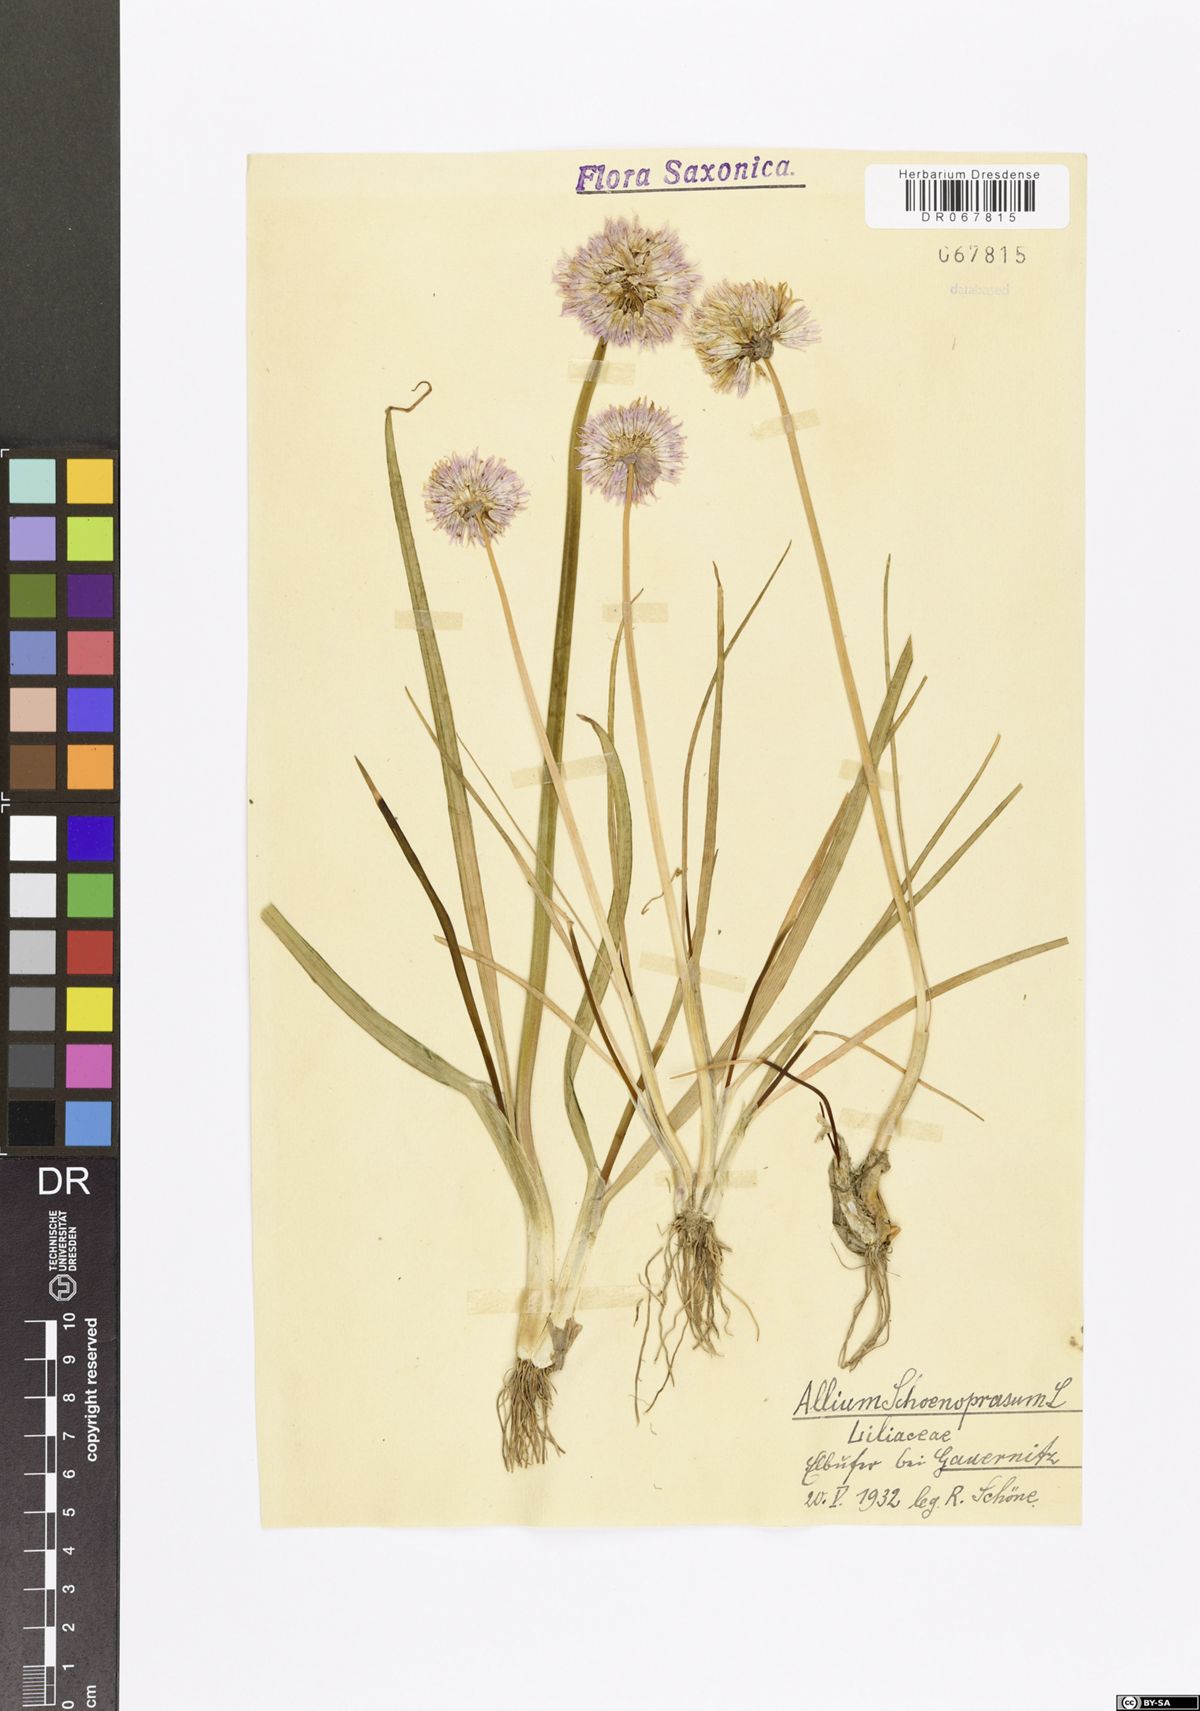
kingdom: Plantae
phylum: Tracheophyta
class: Liliopsida
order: Asparagales
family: Amaryllidaceae
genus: Allium
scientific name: Allium schoenoprasum
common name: Chives
